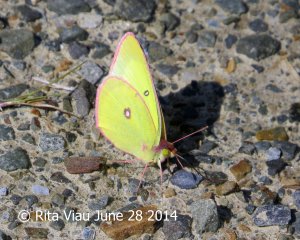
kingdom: Animalia
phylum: Arthropoda
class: Insecta
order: Lepidoptera
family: Pieridae
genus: Colias
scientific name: Colias interior
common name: Pink-edged Sulphur
